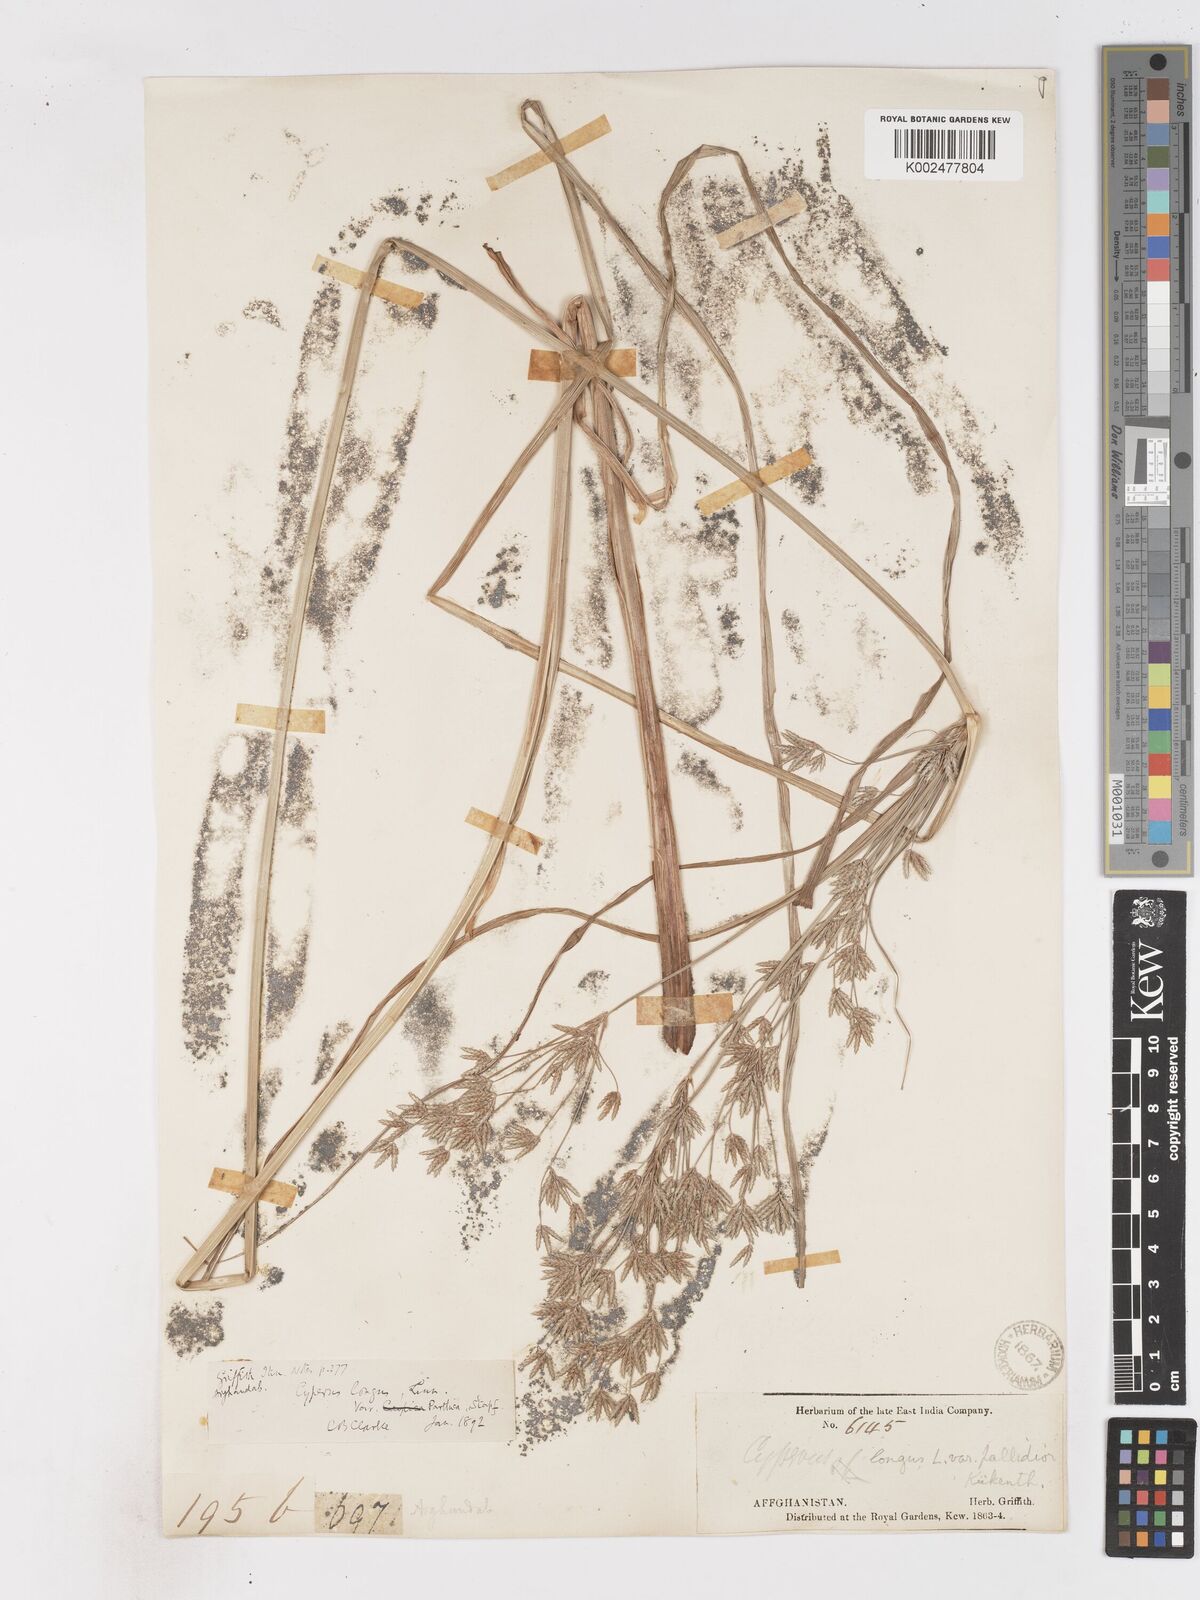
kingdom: Plantae
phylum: Tracheophyta
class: Liliopsida
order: Poales
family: Cyperaceae
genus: Cyperus
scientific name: Cyperus longus
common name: Galingale
